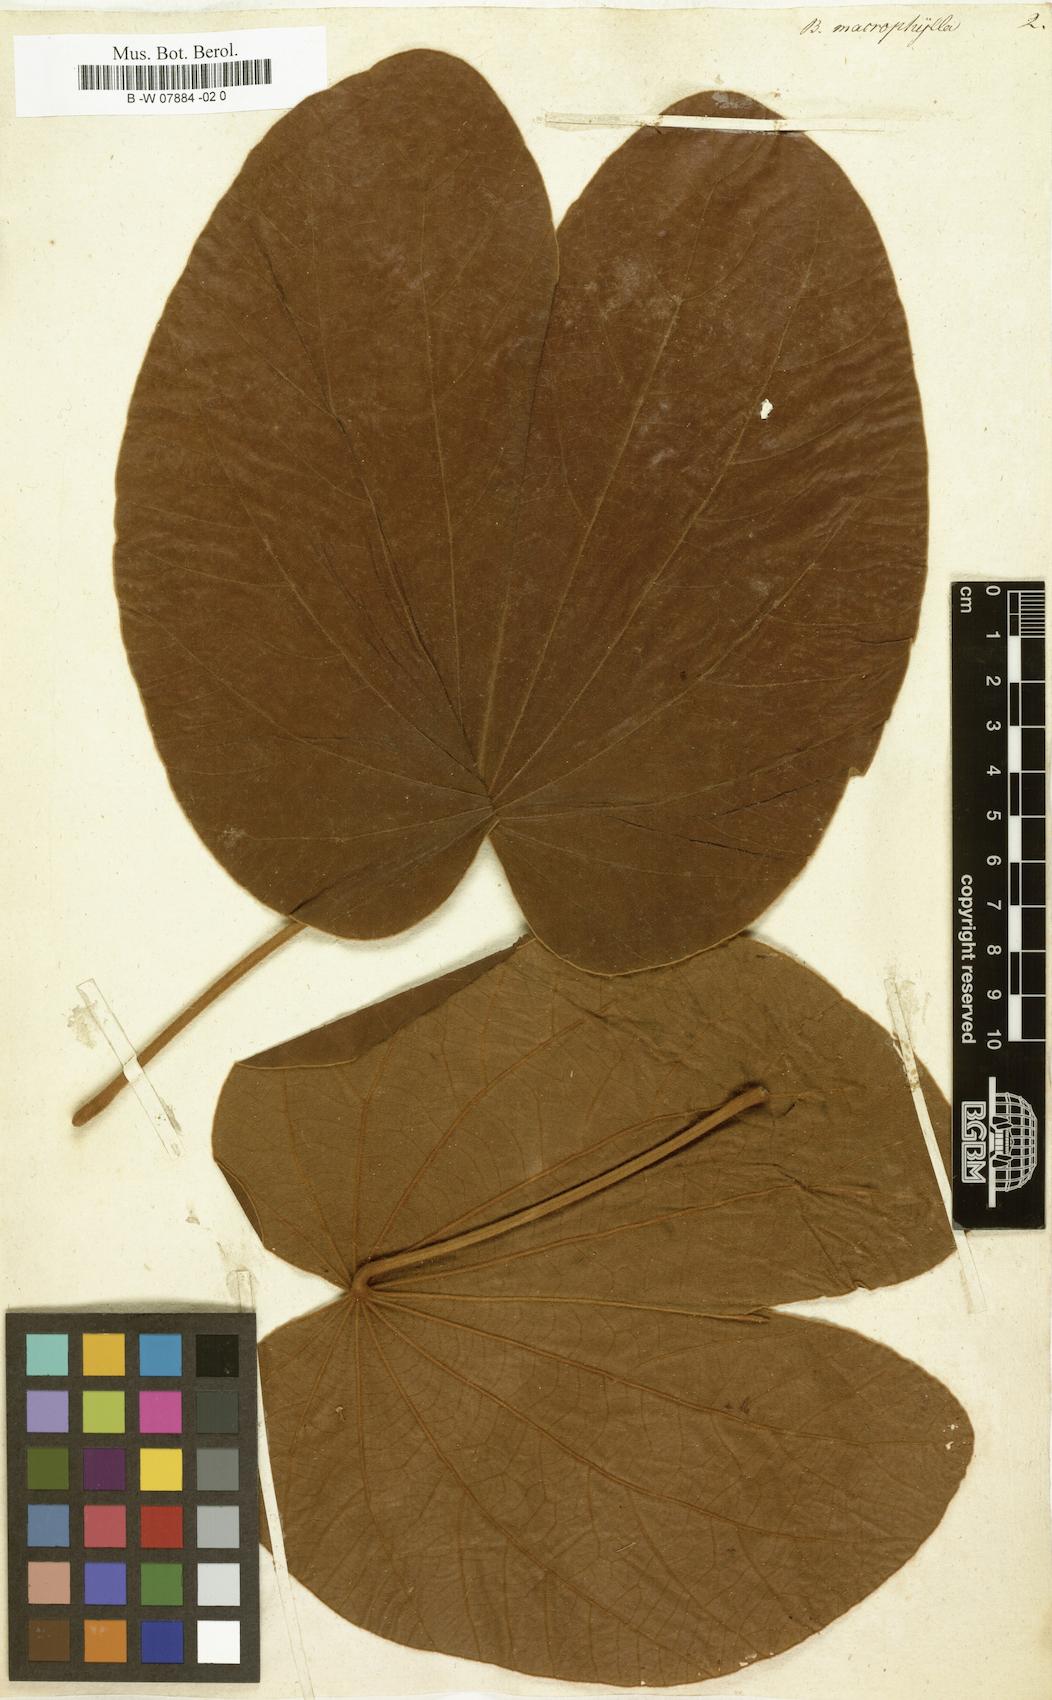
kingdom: Plantae
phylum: Tracheophyta
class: Magnoliopsida
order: Fabales
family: Fabaceae
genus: Schnella
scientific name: Schnella guianensis
